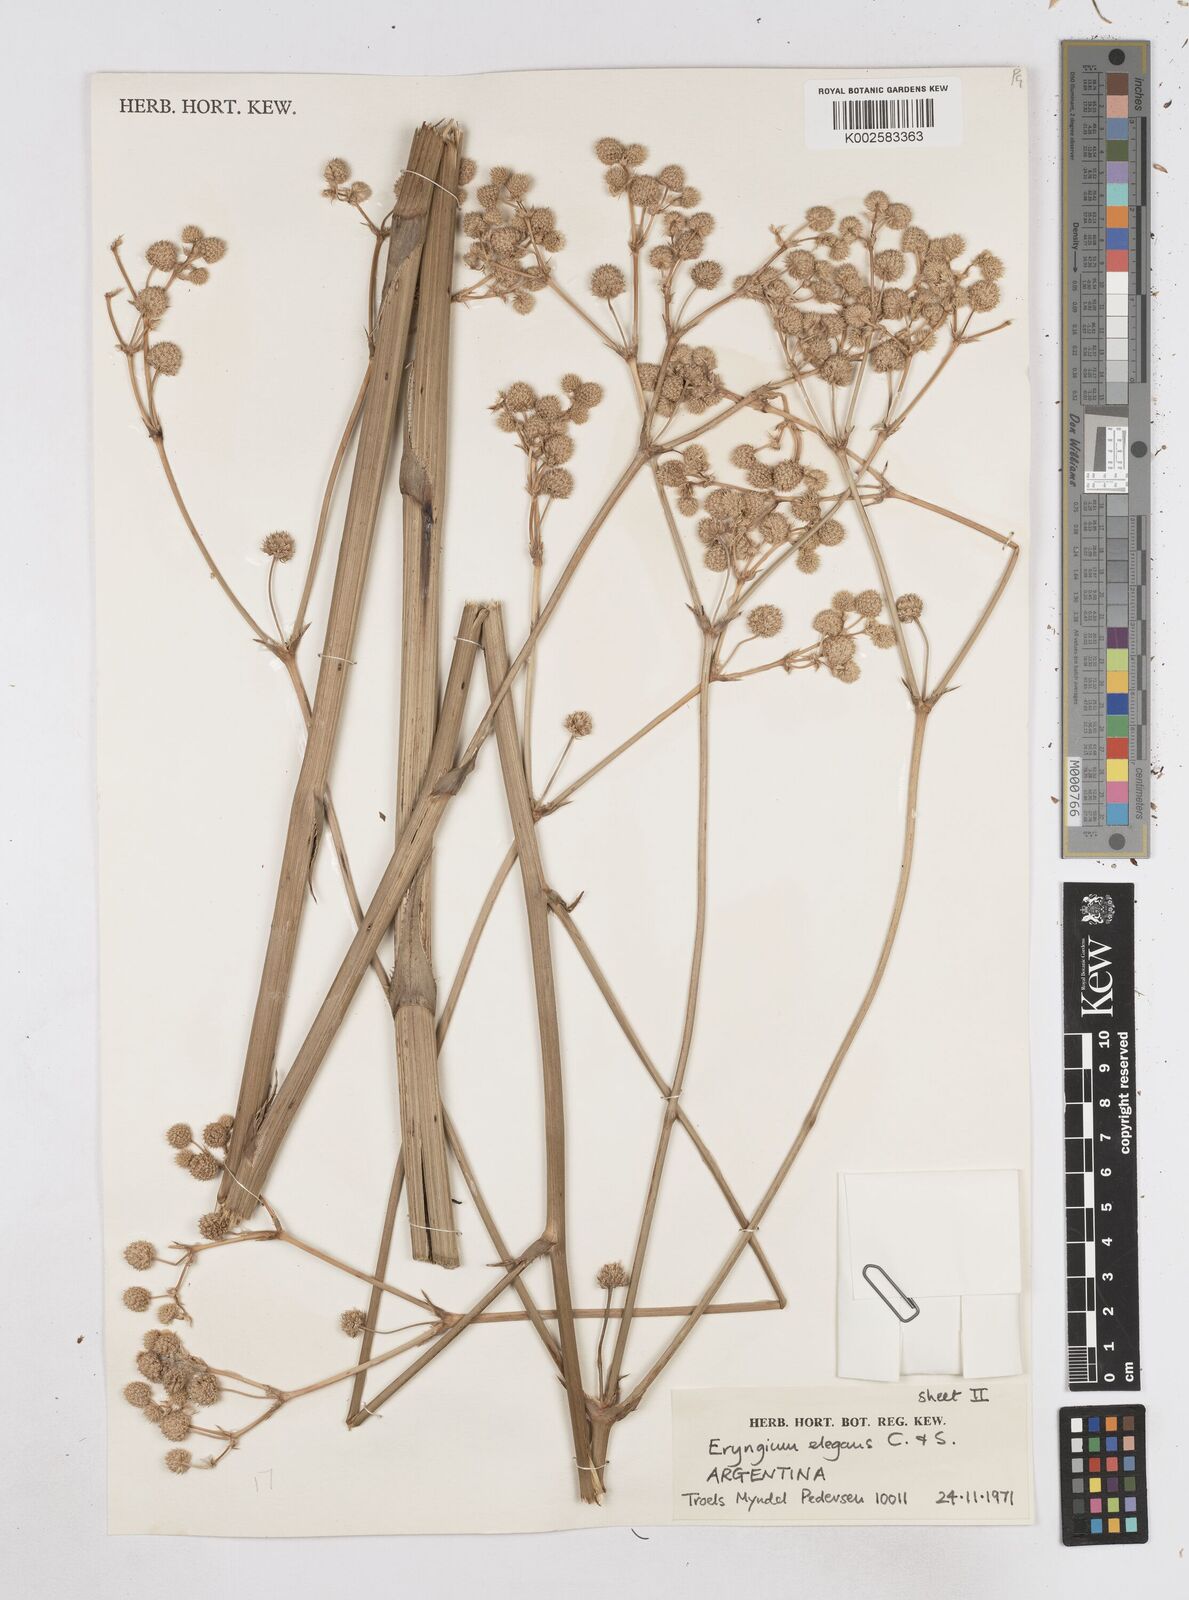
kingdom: Plantae
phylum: Tracheophyta
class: Magnoliopsida
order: Apiales
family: Apiaceae
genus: Eryngium
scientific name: Eryngium elegans
